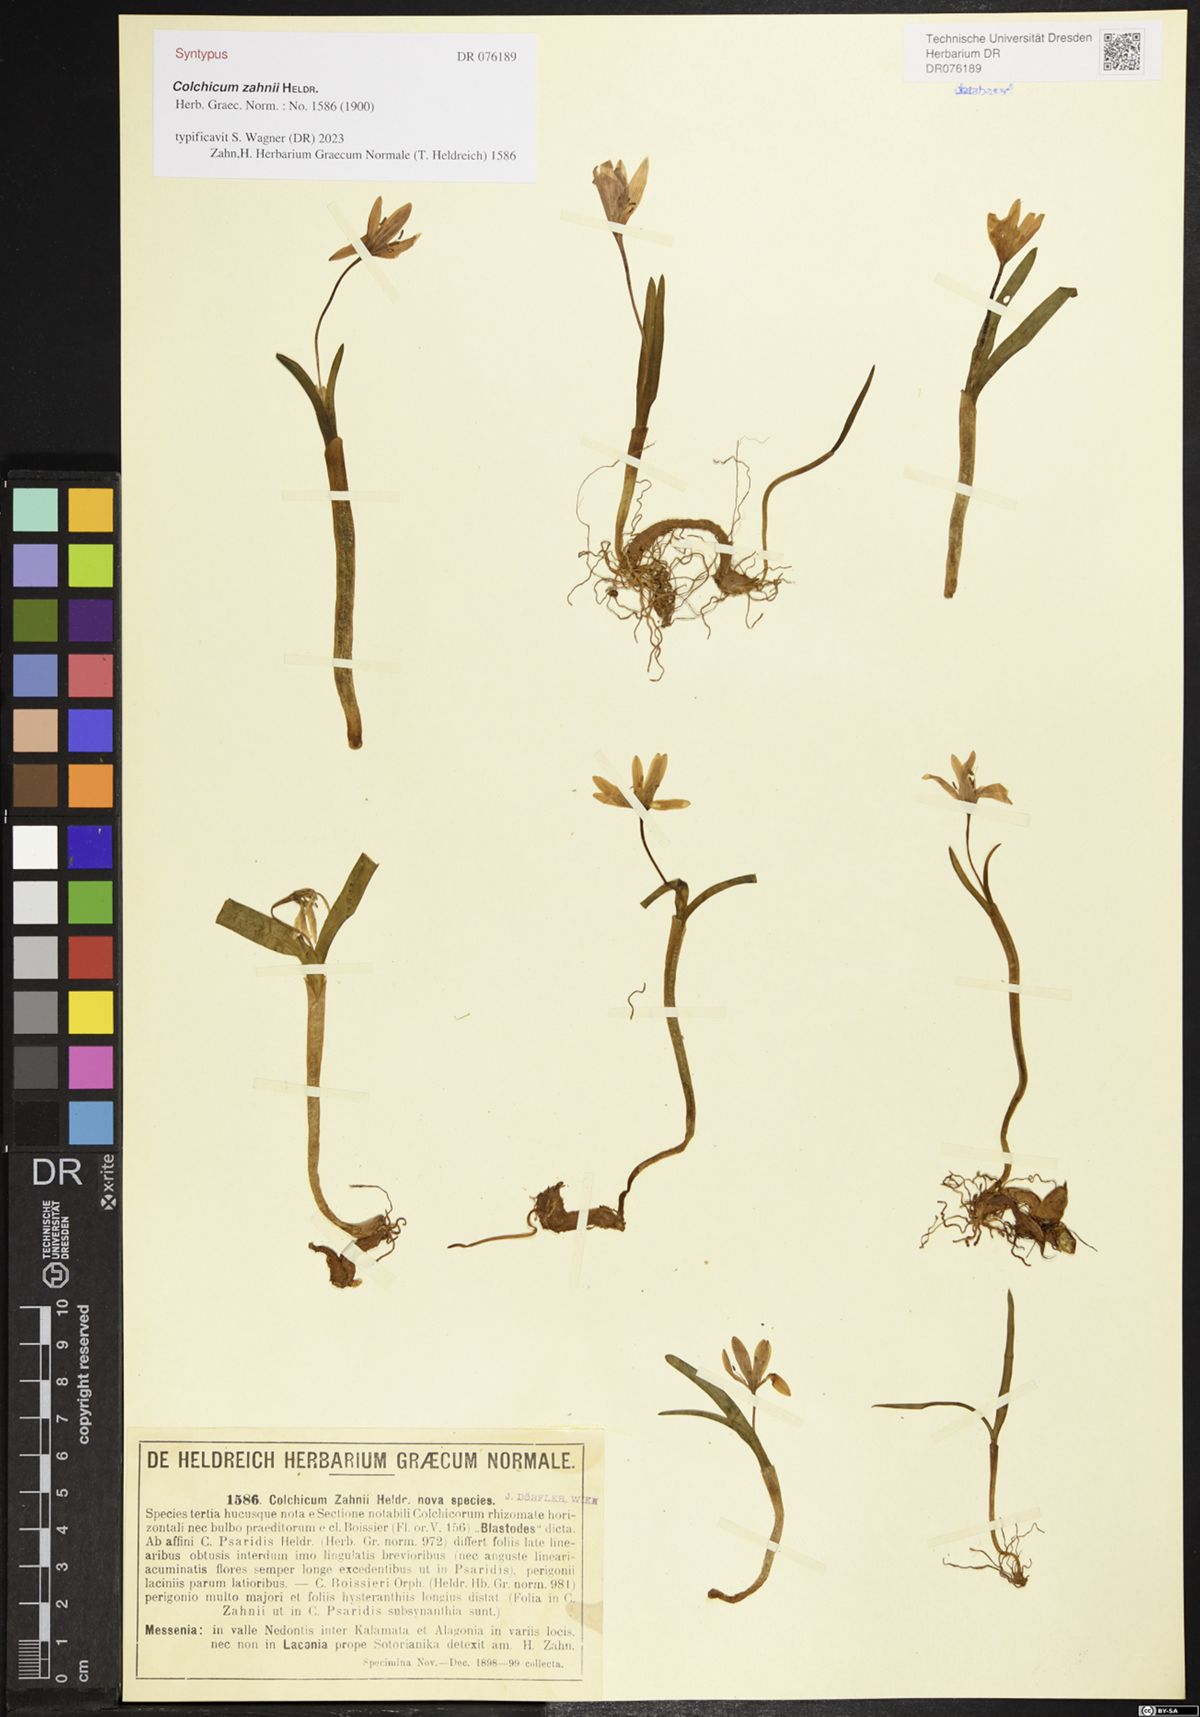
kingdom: Plantae
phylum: Tracheophyta
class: Liliopsida
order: Liliales
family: Colchicaceae
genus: Colchicum
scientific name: Colchicum zahnii
